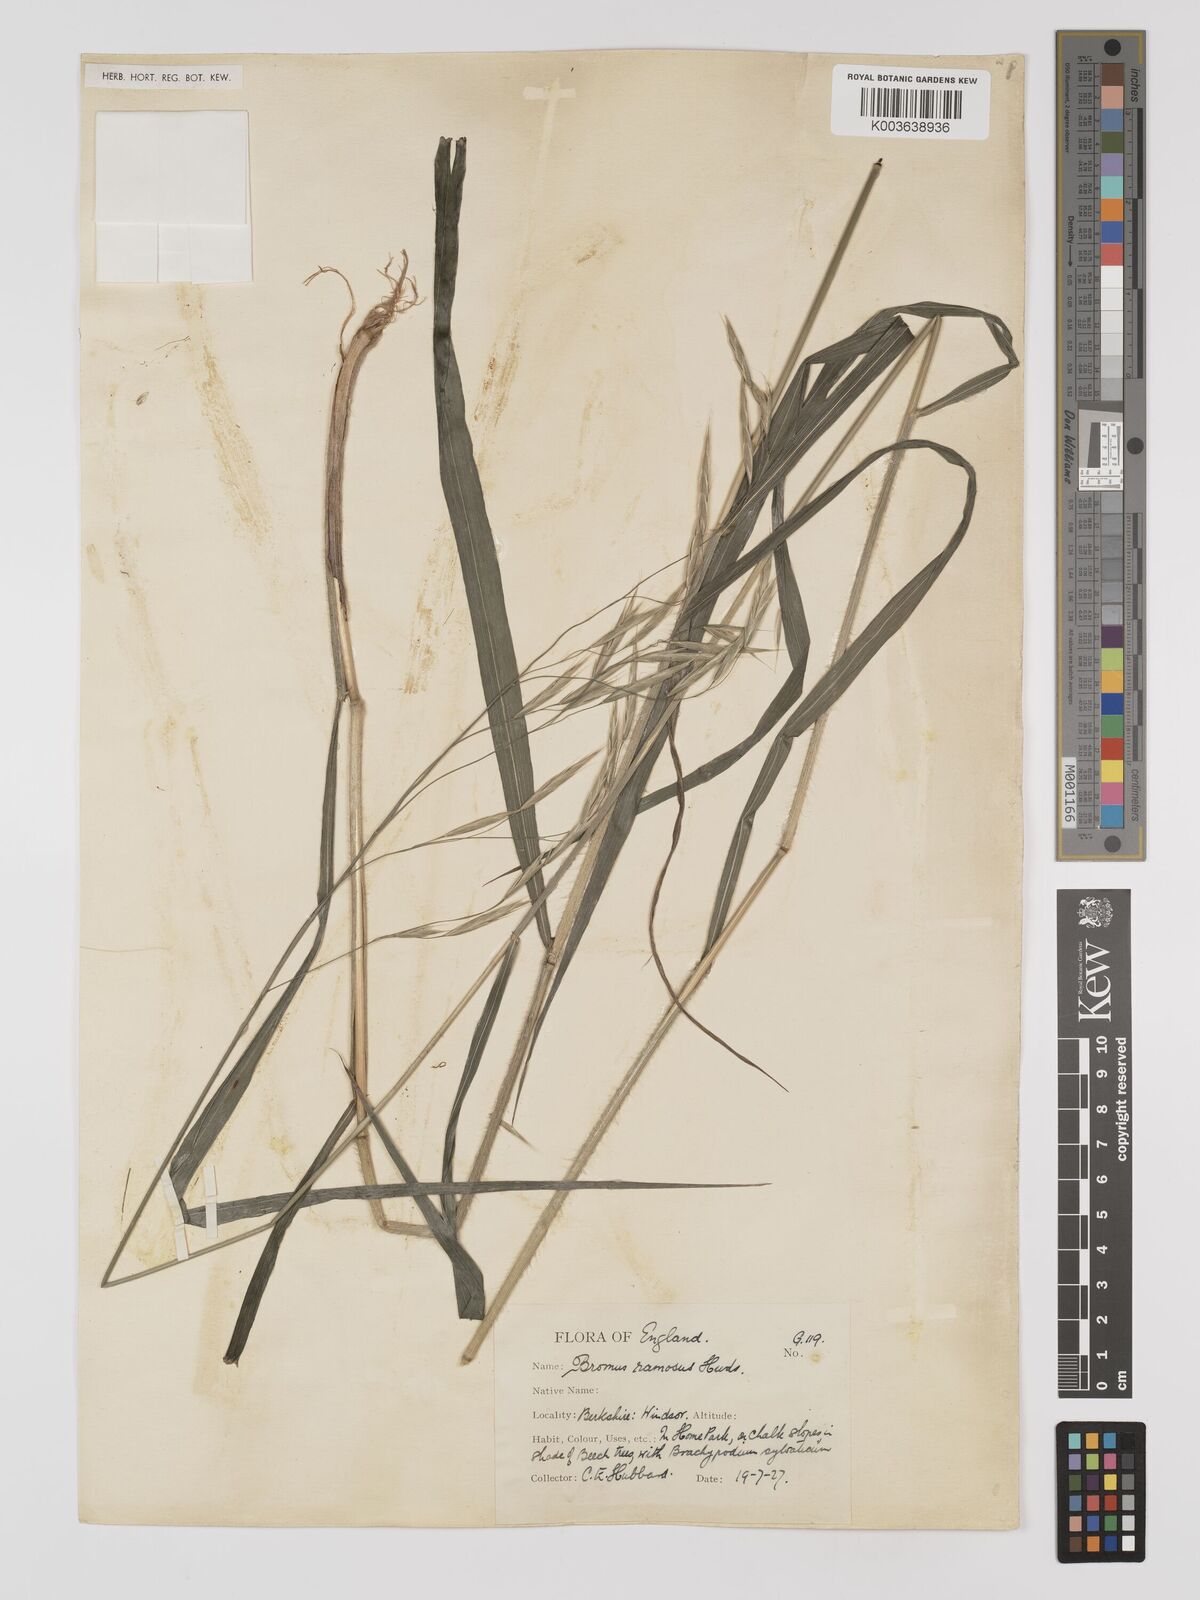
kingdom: Plantae
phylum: Tracheophyta
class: Liliopsida
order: Poales
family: Poaceae
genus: Bromus
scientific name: Bromus ramosus
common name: Hairy brome
